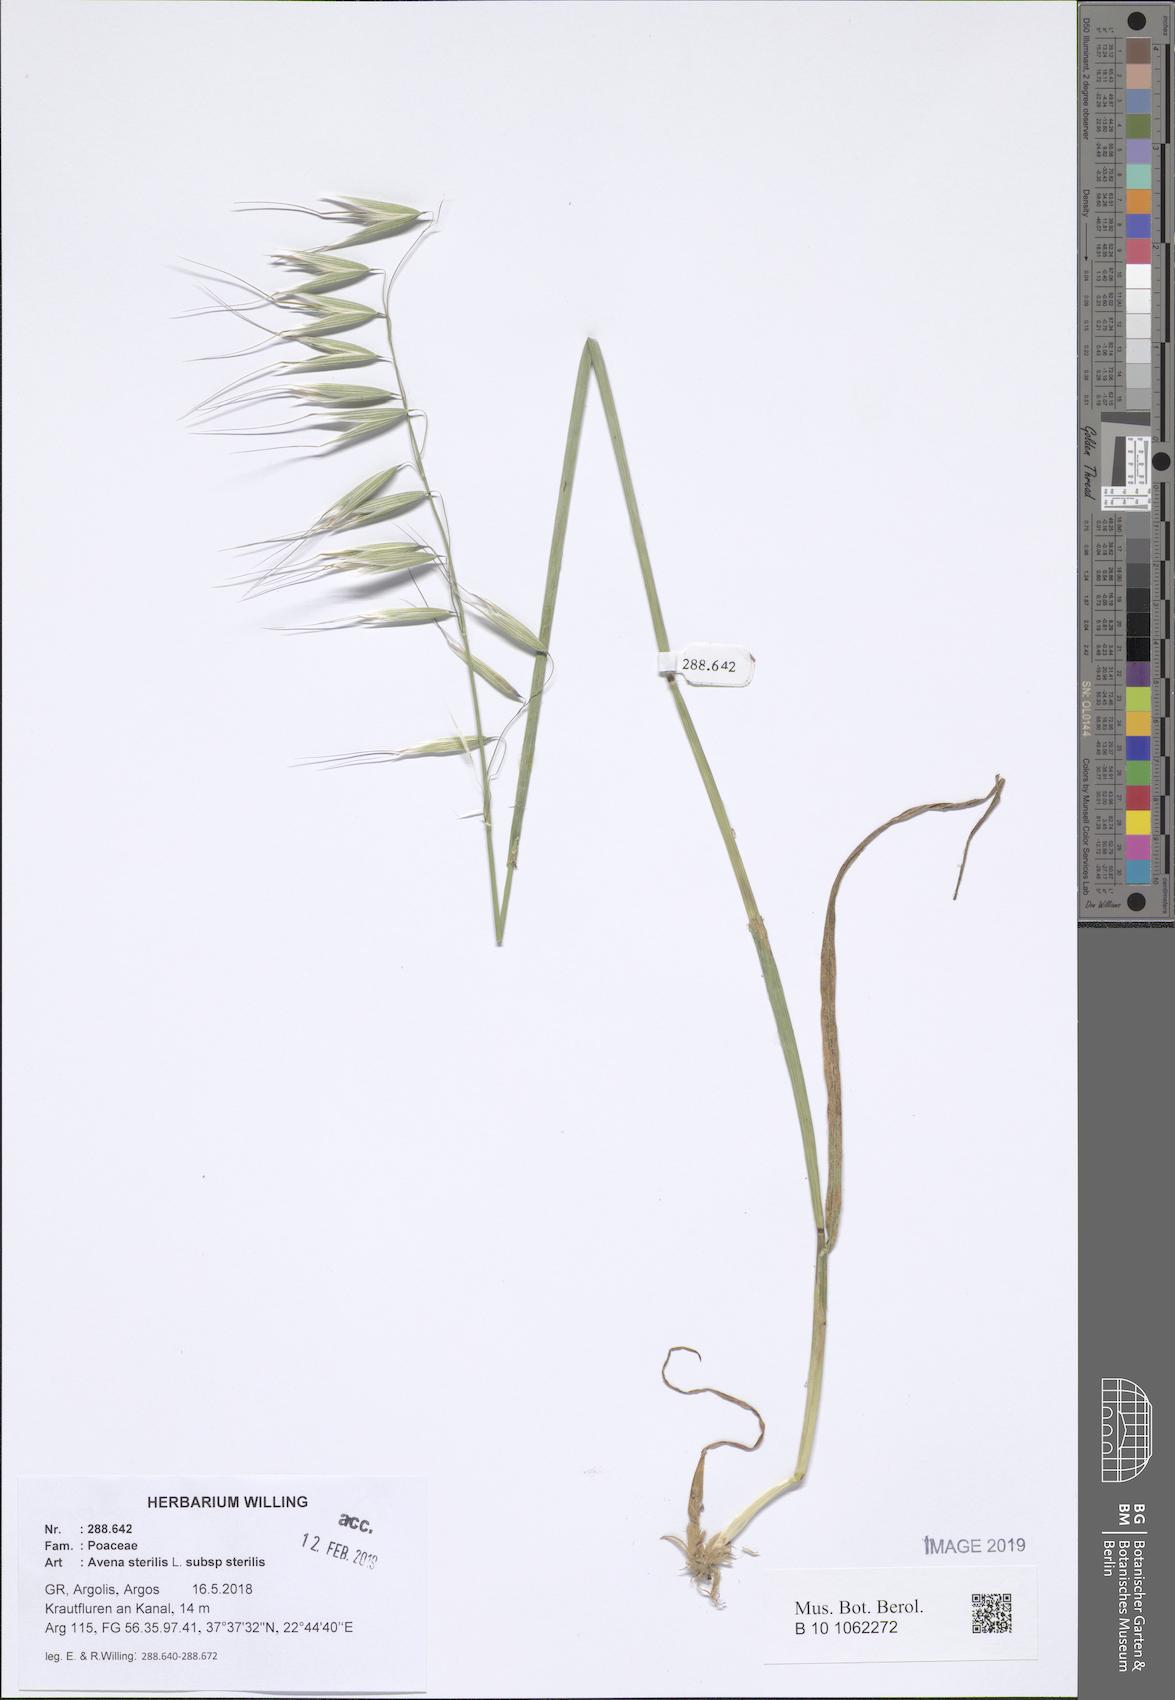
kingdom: Plantae
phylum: Tracheophyta
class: Liliopsida
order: Poales
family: Poaceae
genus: Avena
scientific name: Avena sterilis
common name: Animated oat
